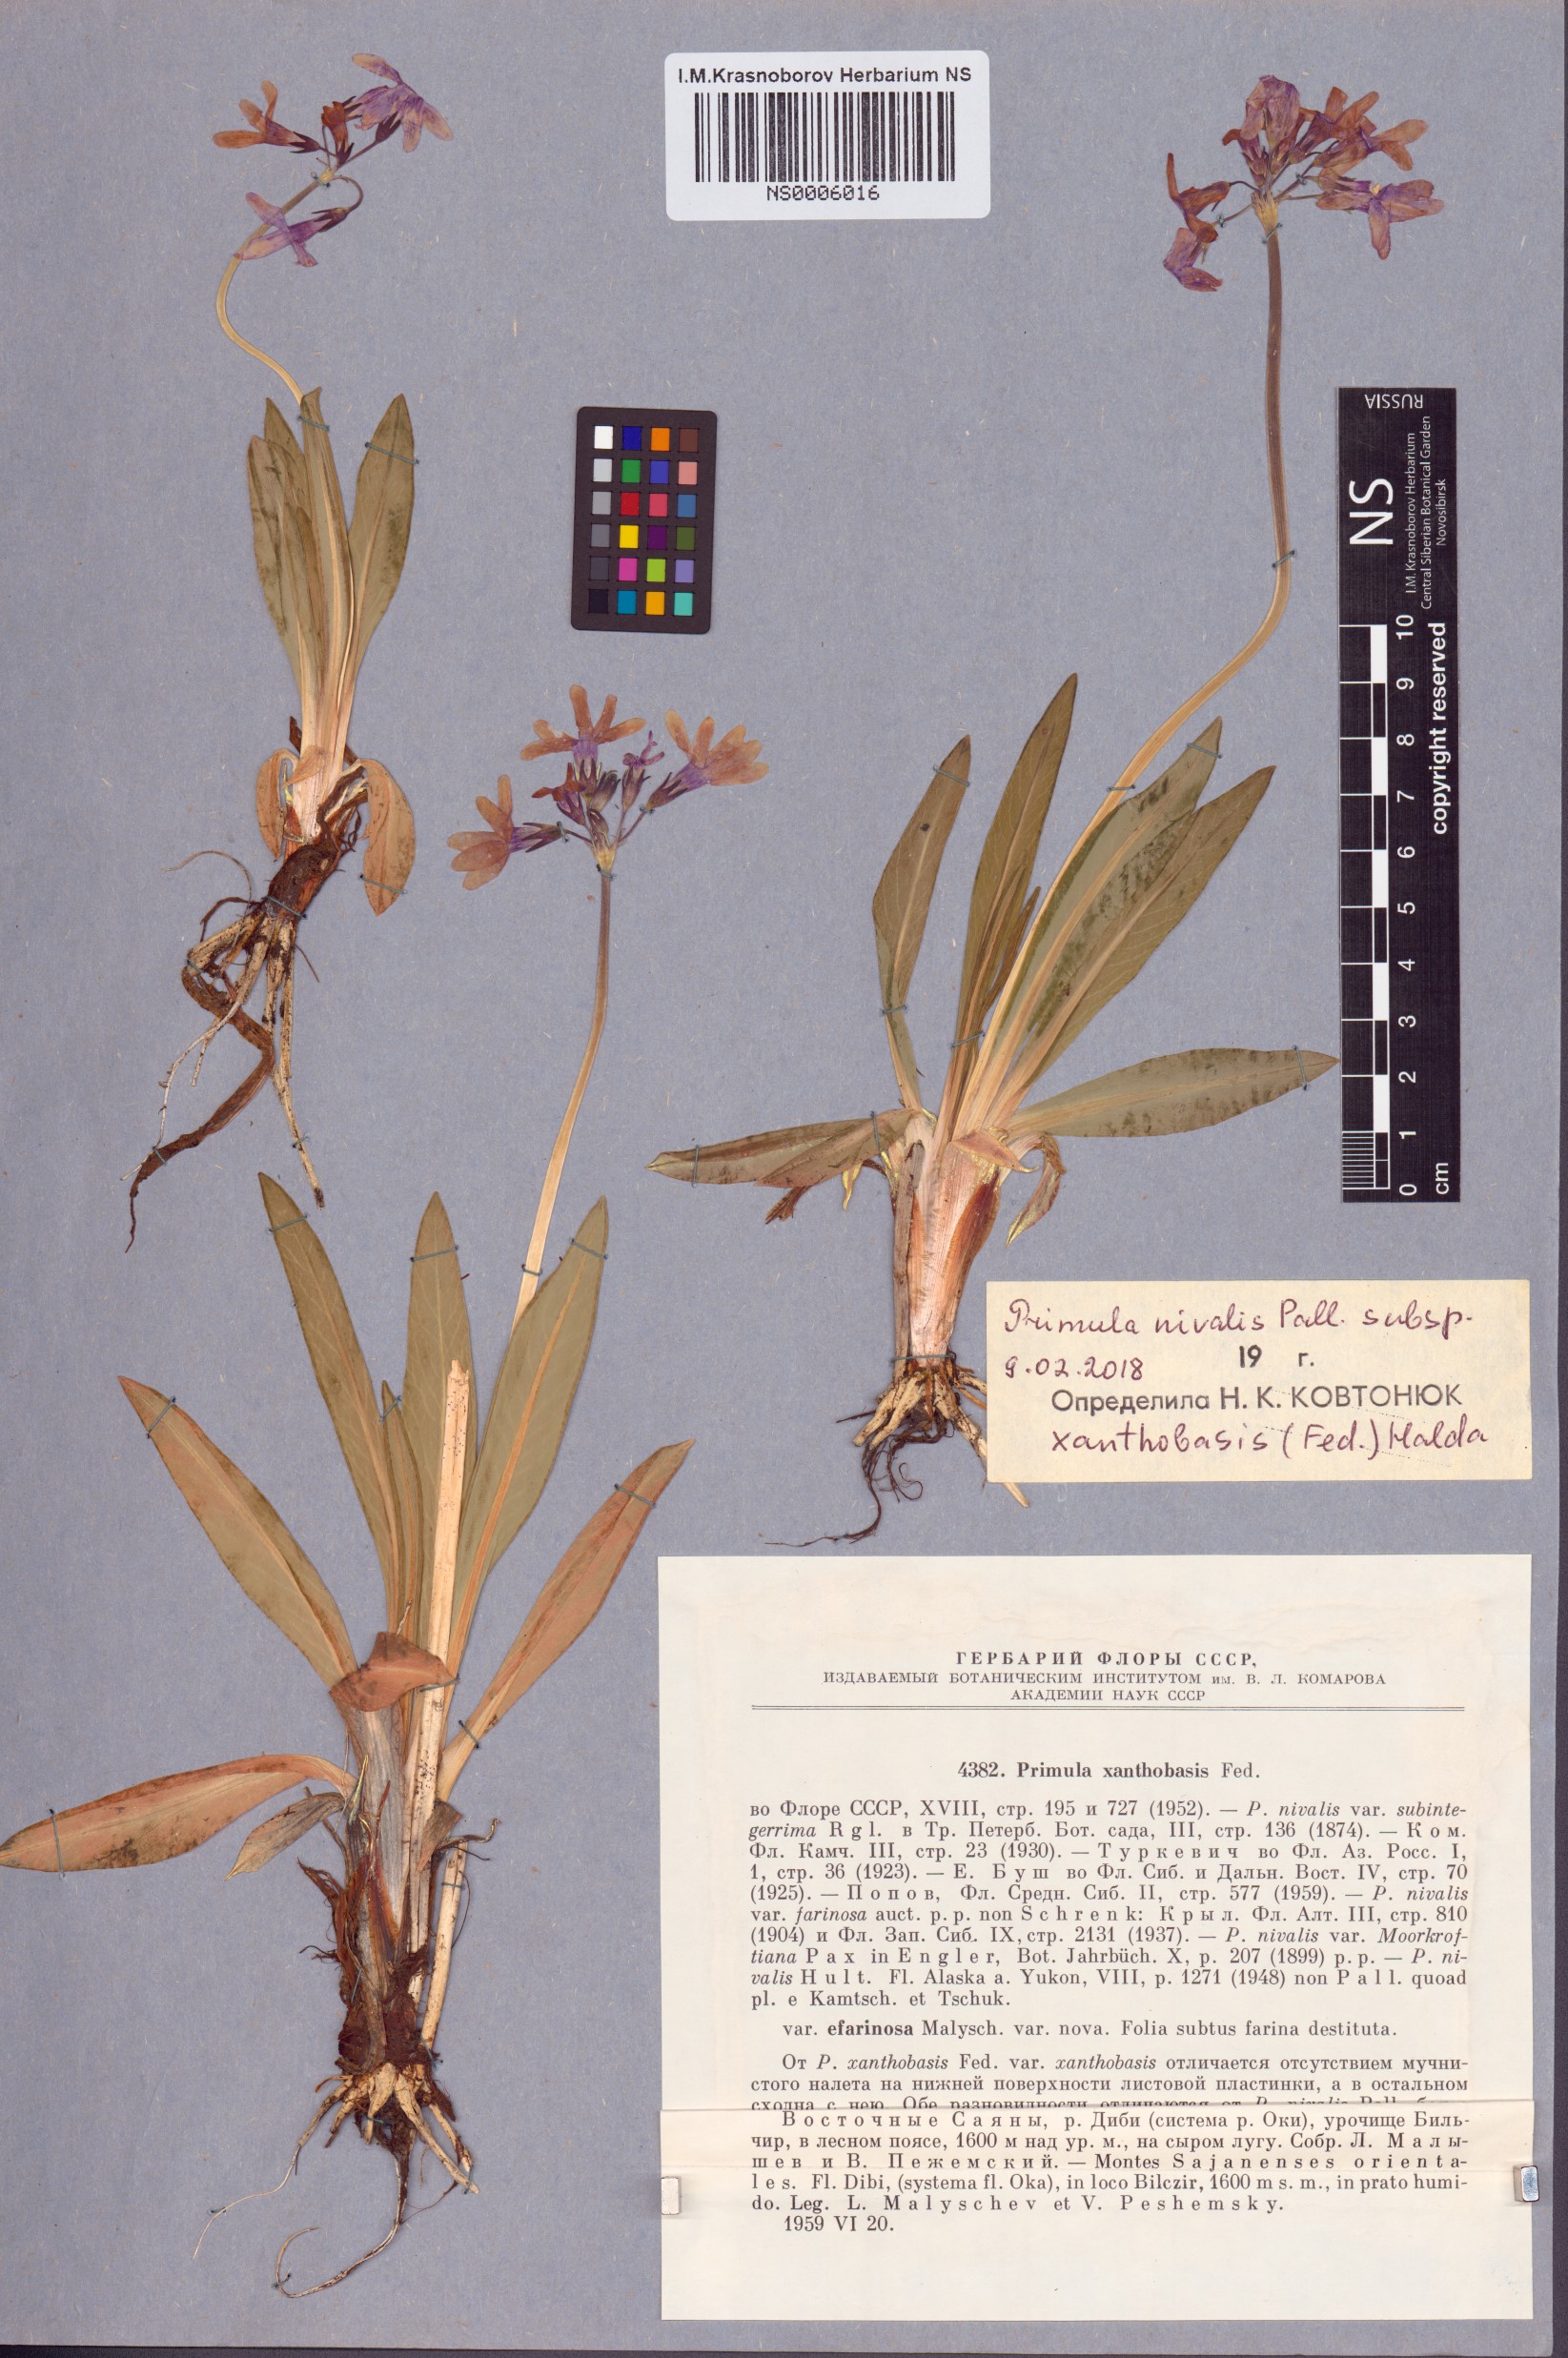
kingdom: Plantae
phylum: Tracheophyta
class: Magnoliopsida
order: Ericales
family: Primulaceae
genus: Primula
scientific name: Primula nivalis
